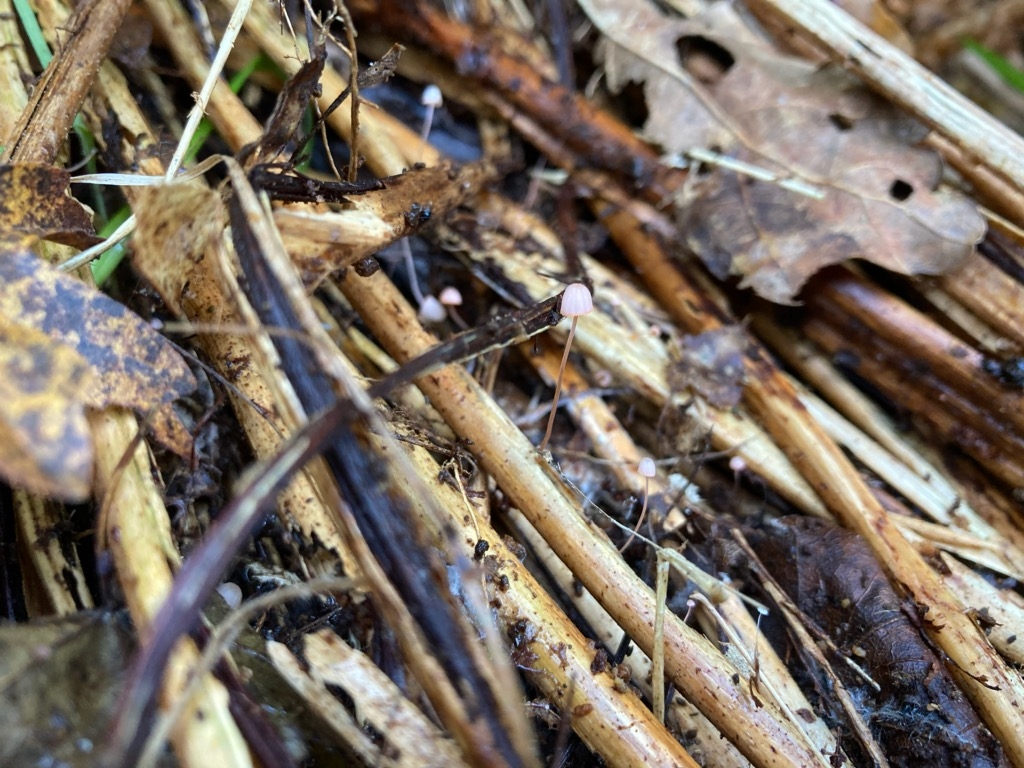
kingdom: Fungi
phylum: Basidiomycota
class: Agaricomycetes
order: Agaricales
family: Mycenaceae
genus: Mycena
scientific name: Mycena pterigena
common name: bregne-huesvamp
